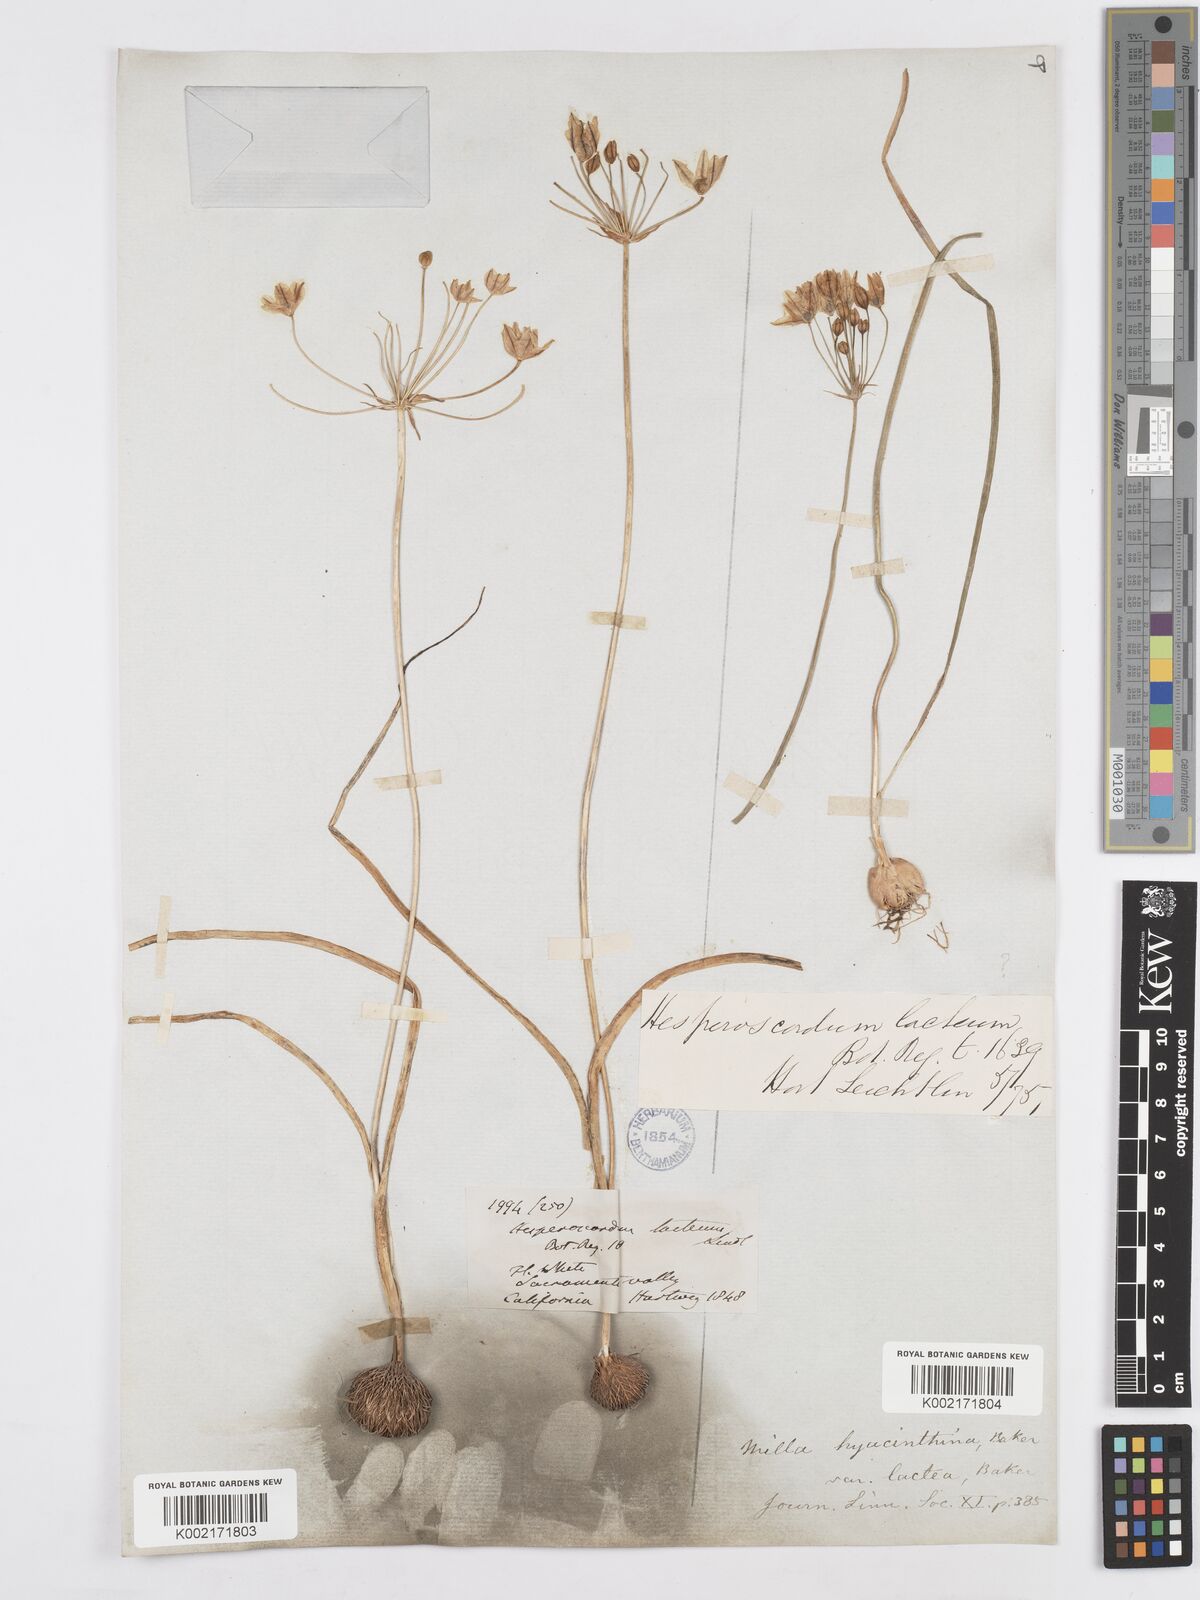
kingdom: Plantae
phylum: Tracheophyta
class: Liliopsida
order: Asparagales
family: Asparagaceae
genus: Triteleia
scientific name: Triteleia hyacinthina
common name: White brodiaea
